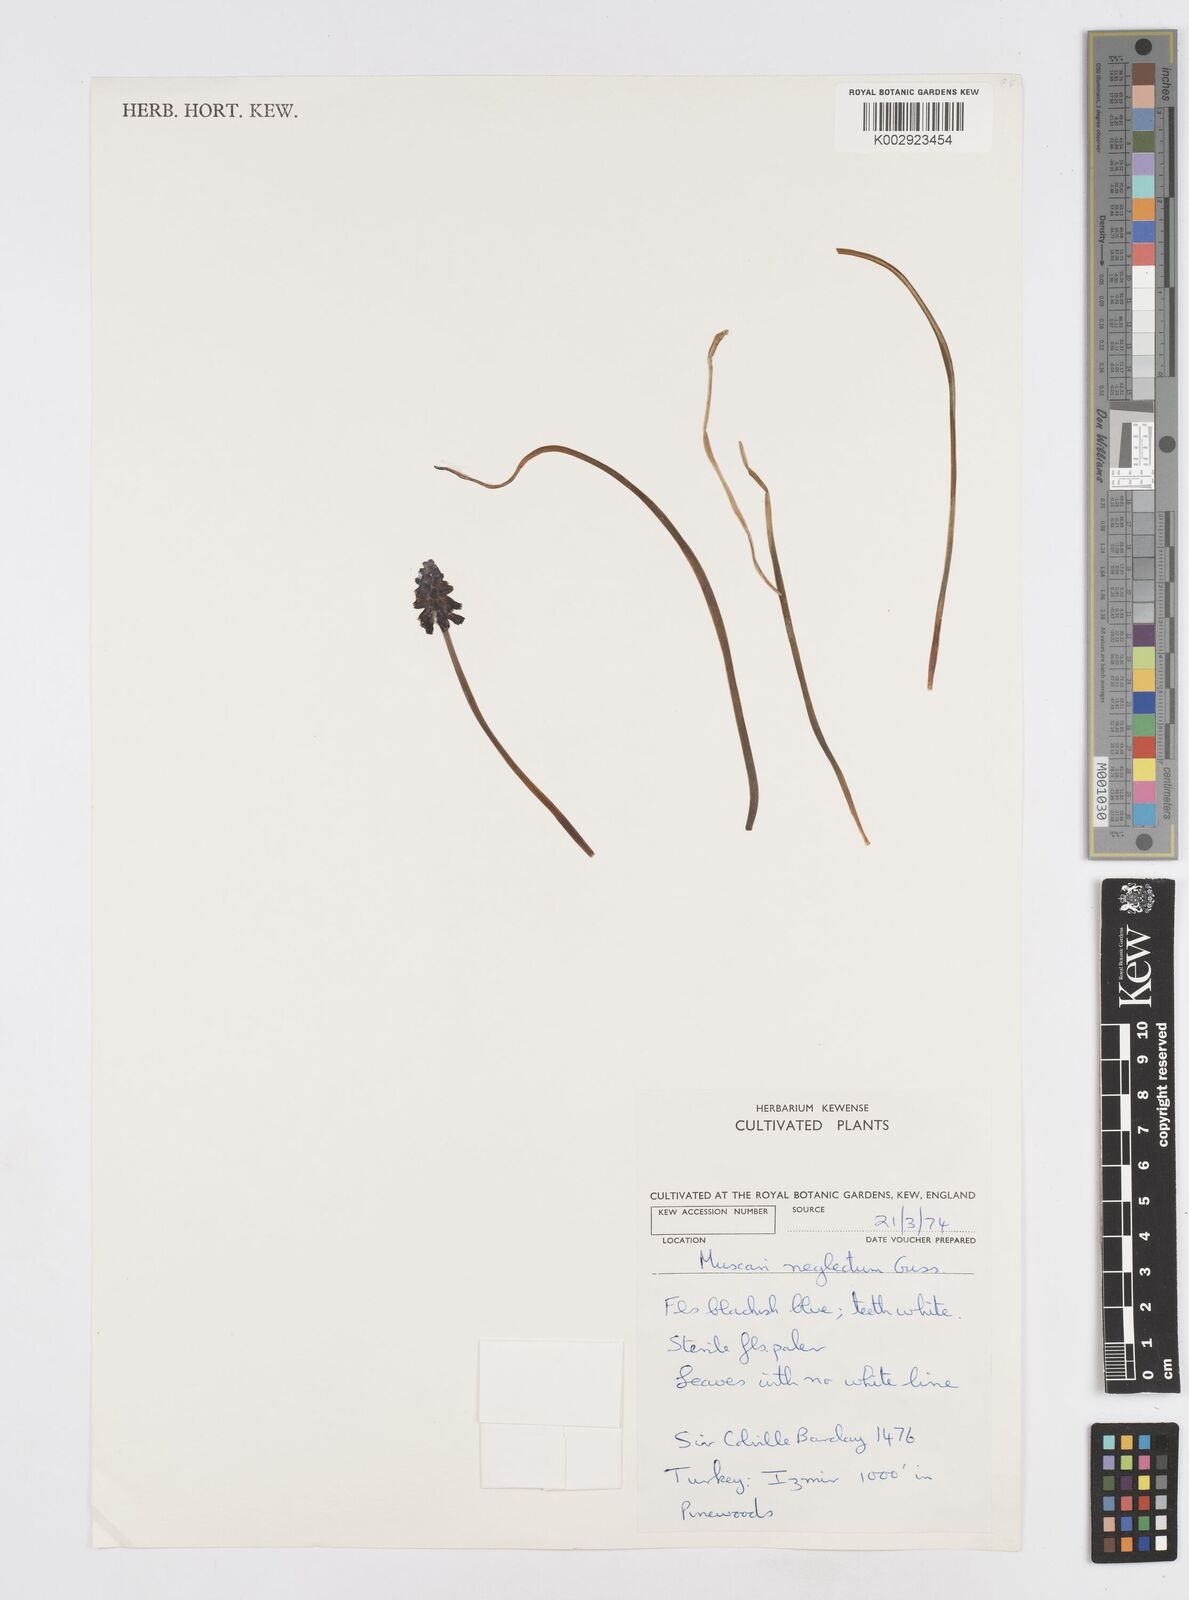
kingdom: Plantae
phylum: Tracheophyta
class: Liliopsida
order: Asparagales
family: Asparagaceae
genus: Muscari
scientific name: Muscari neglectum
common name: Grape-hyacinth
